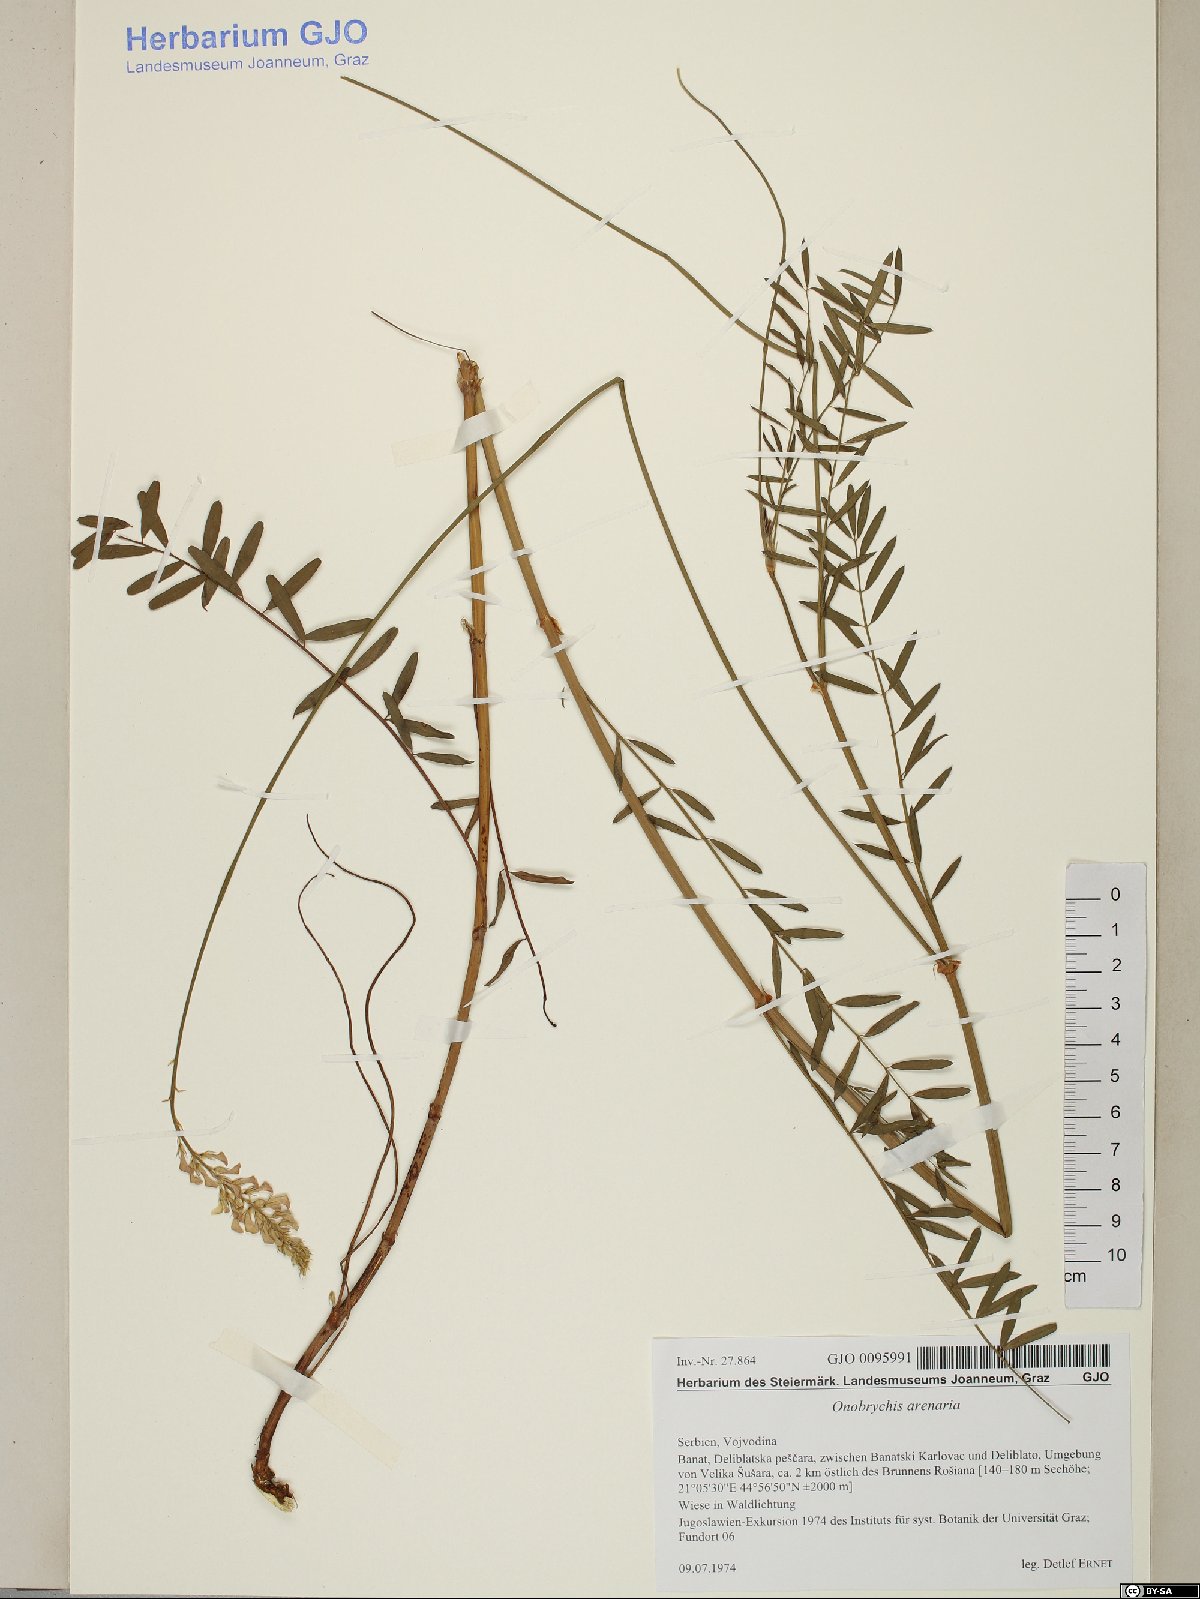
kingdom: Plantae
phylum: Tracheophyta
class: Magnoliopsida
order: Fabales
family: Fabaceae
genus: Onobrychis
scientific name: Onobrychis arenaria
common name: Sand esparcet
